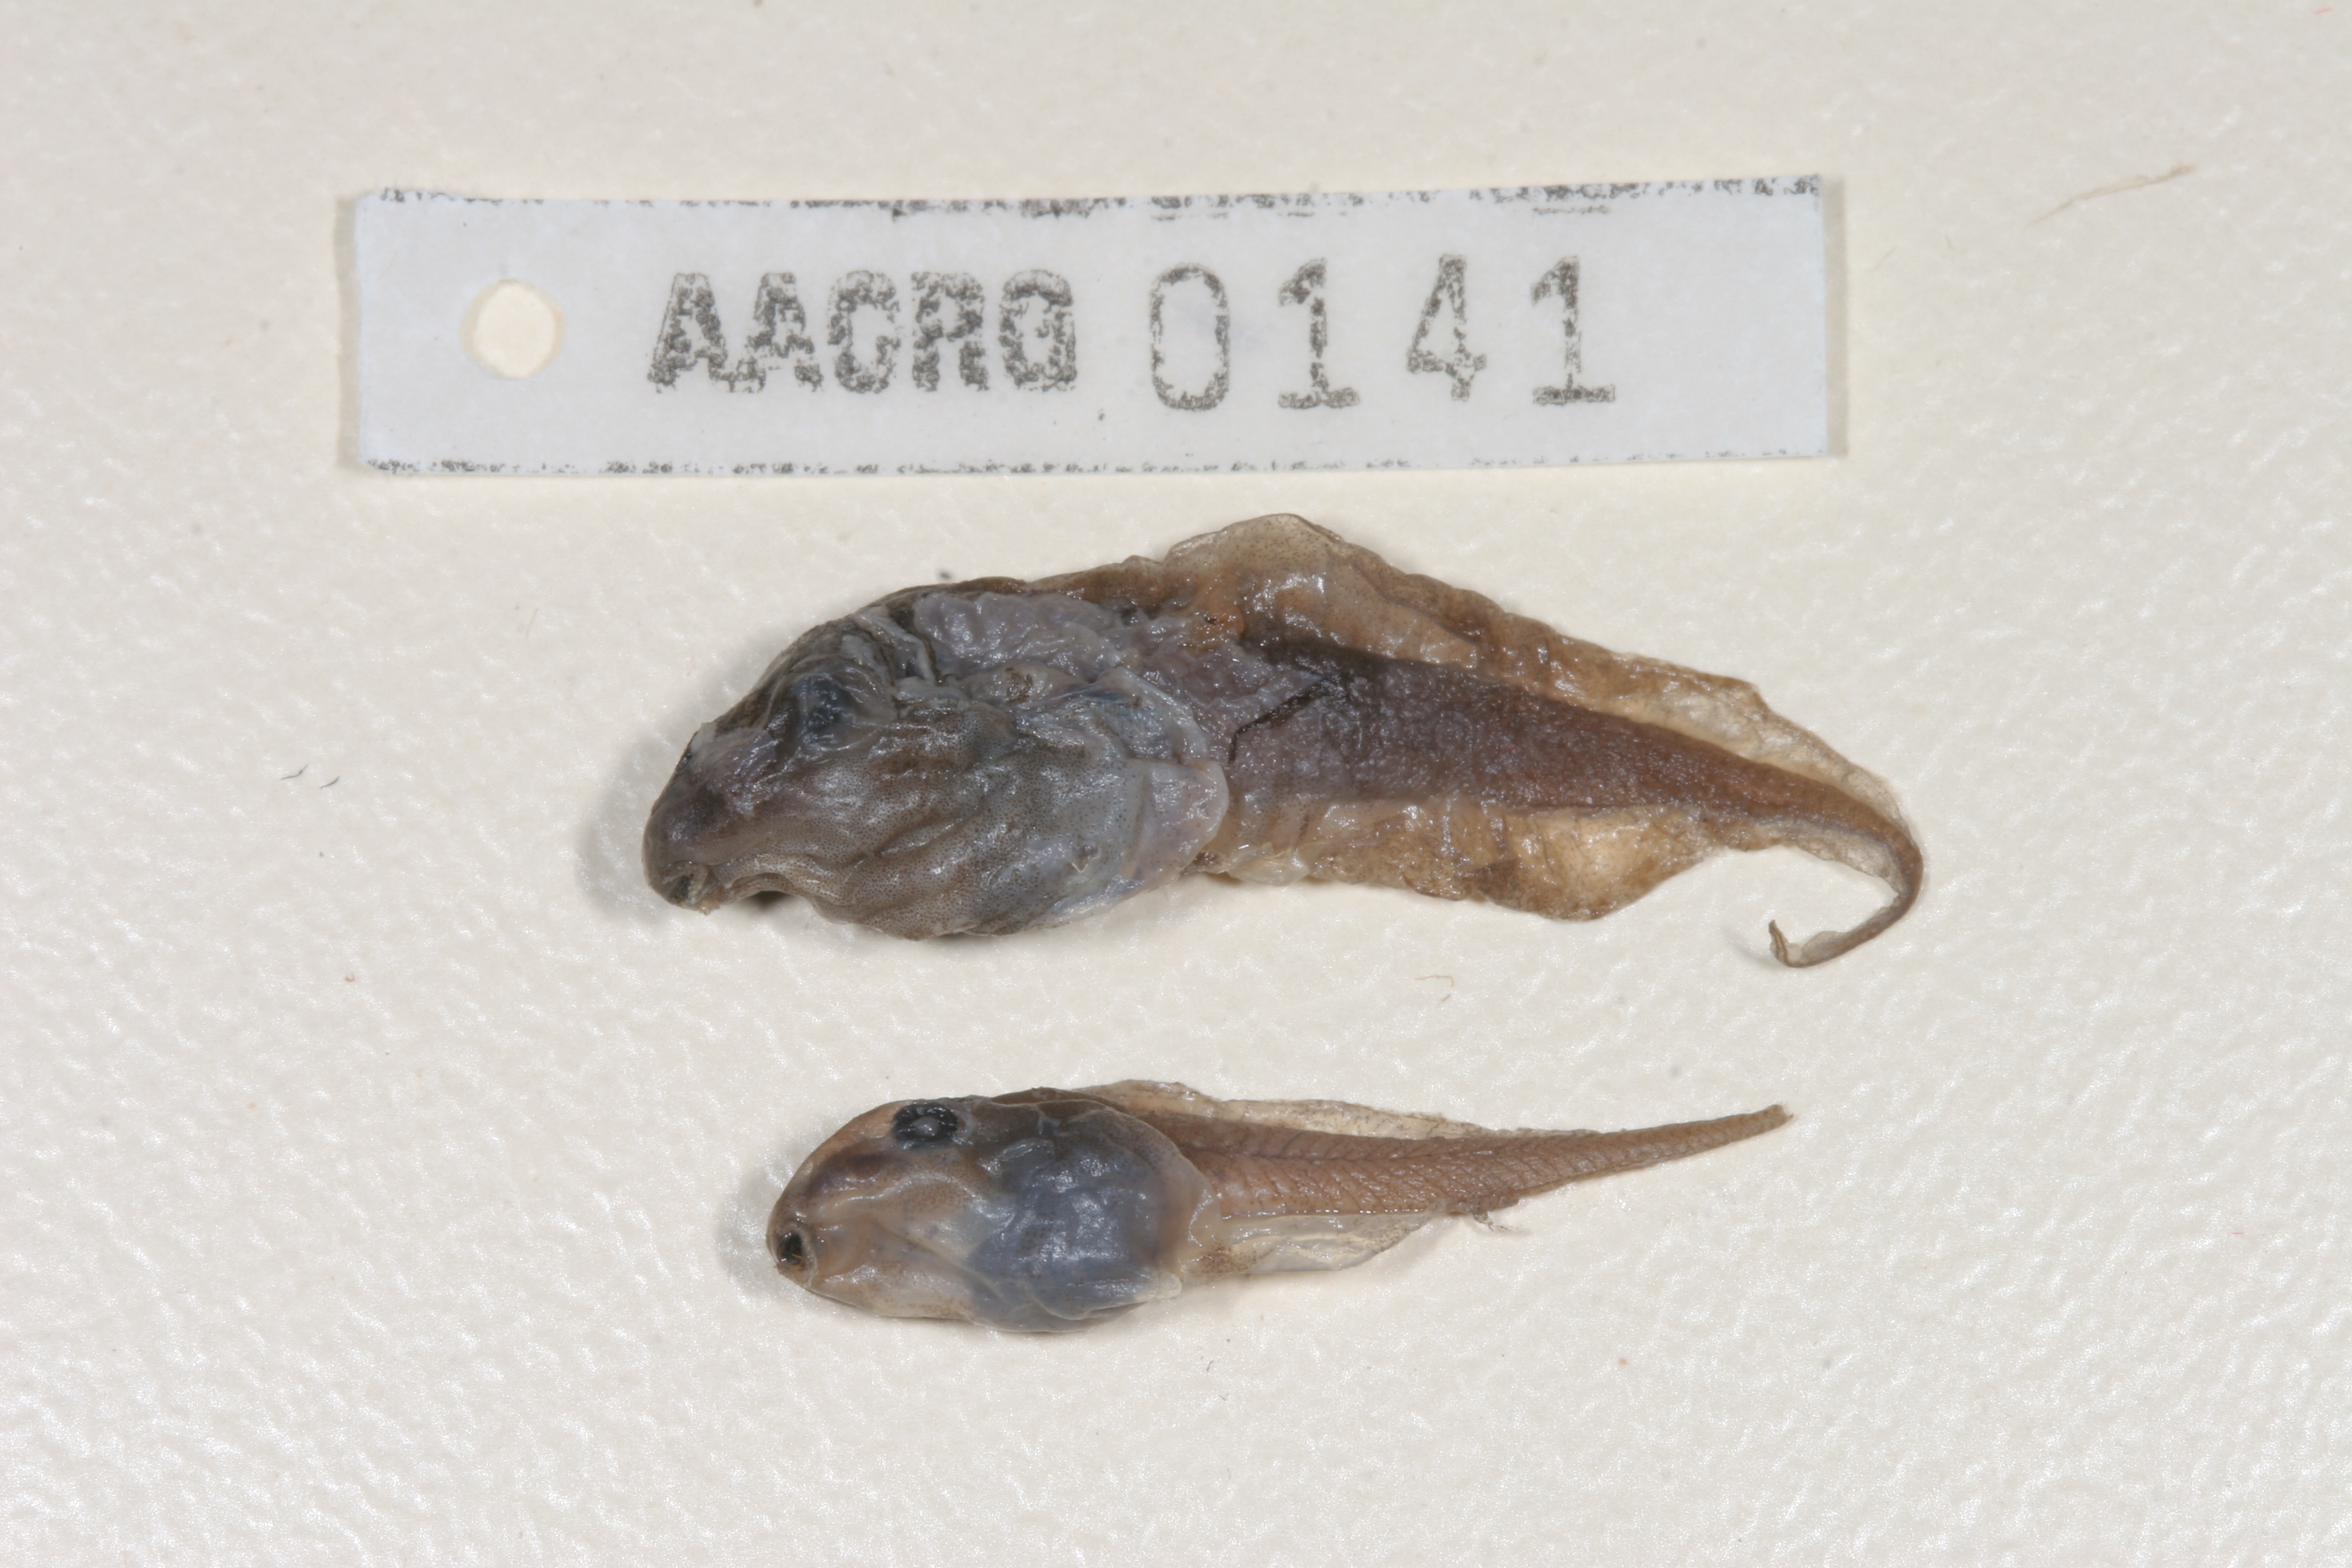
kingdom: Animalia
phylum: Chordata
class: Amphibia
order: Anura
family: Hyperoliidae
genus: Phlyctimantis
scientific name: Phlyctimantis maculatus
